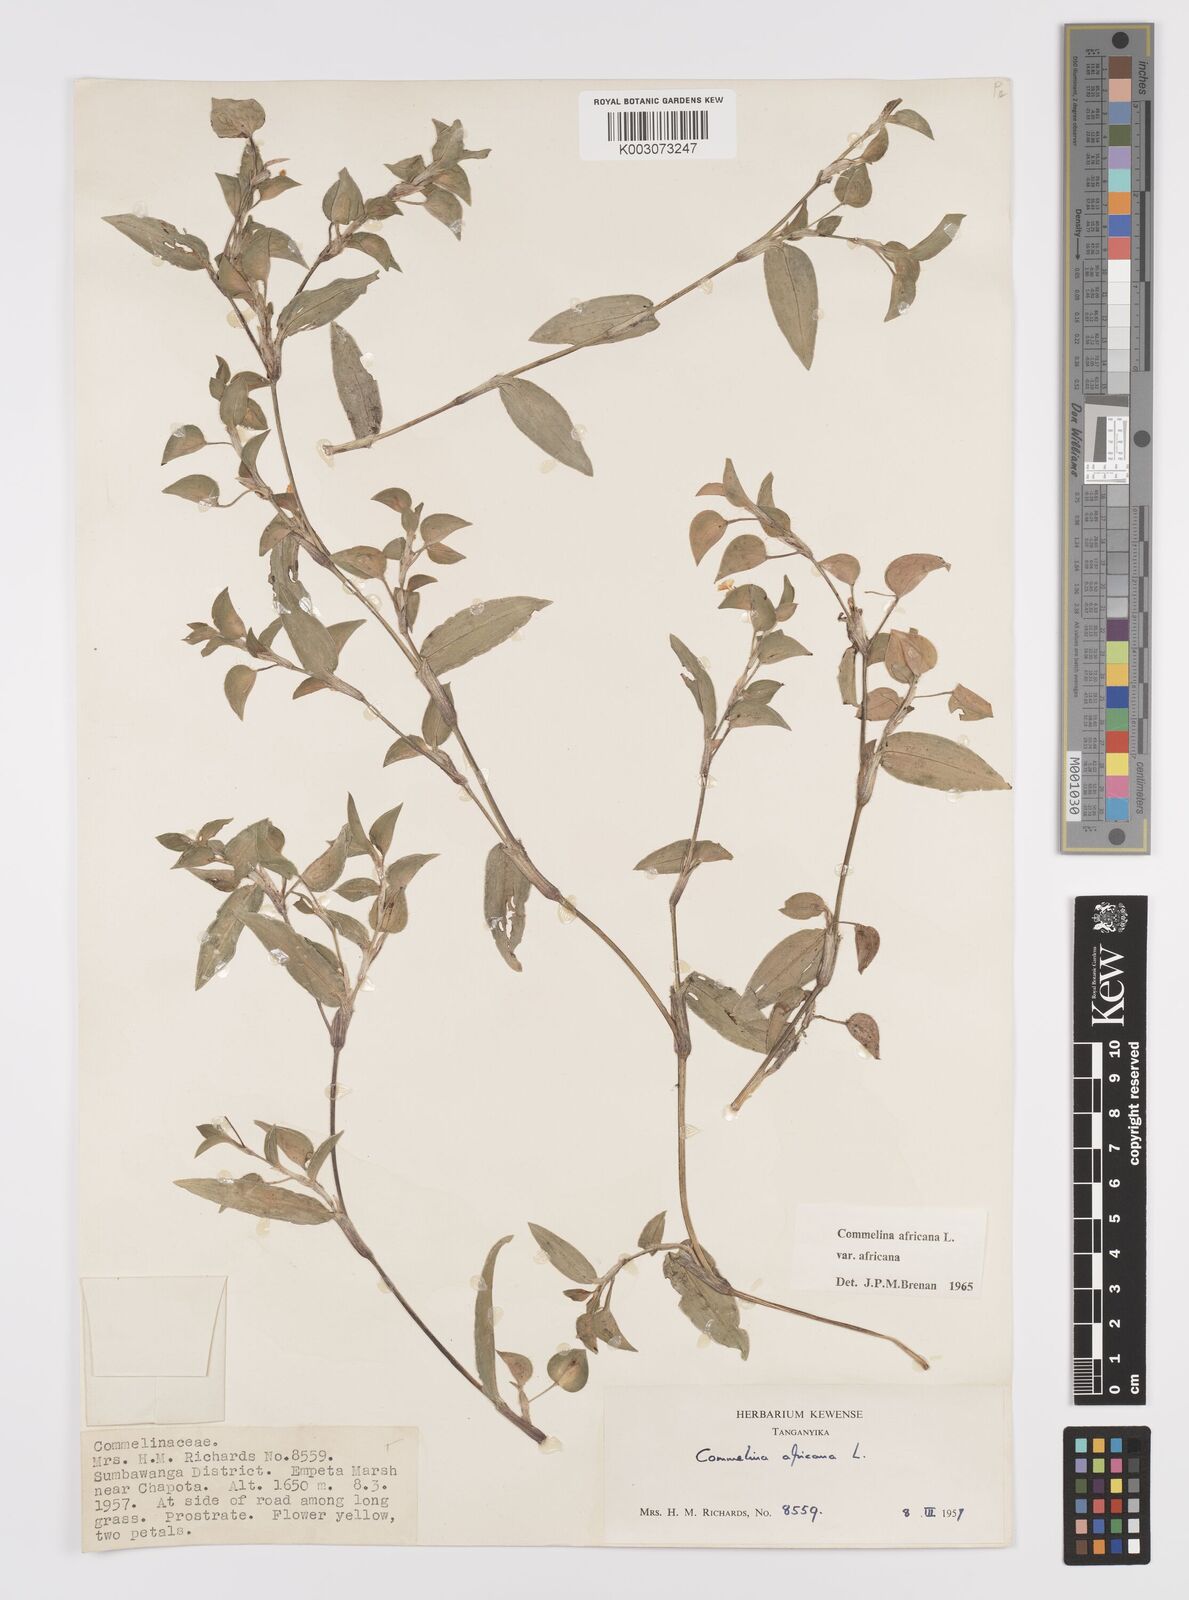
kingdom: Plantae
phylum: Tracheophyta
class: Liliopsida
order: Commelinales
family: Commelinaceae
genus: Commelina
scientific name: Commelina africana
